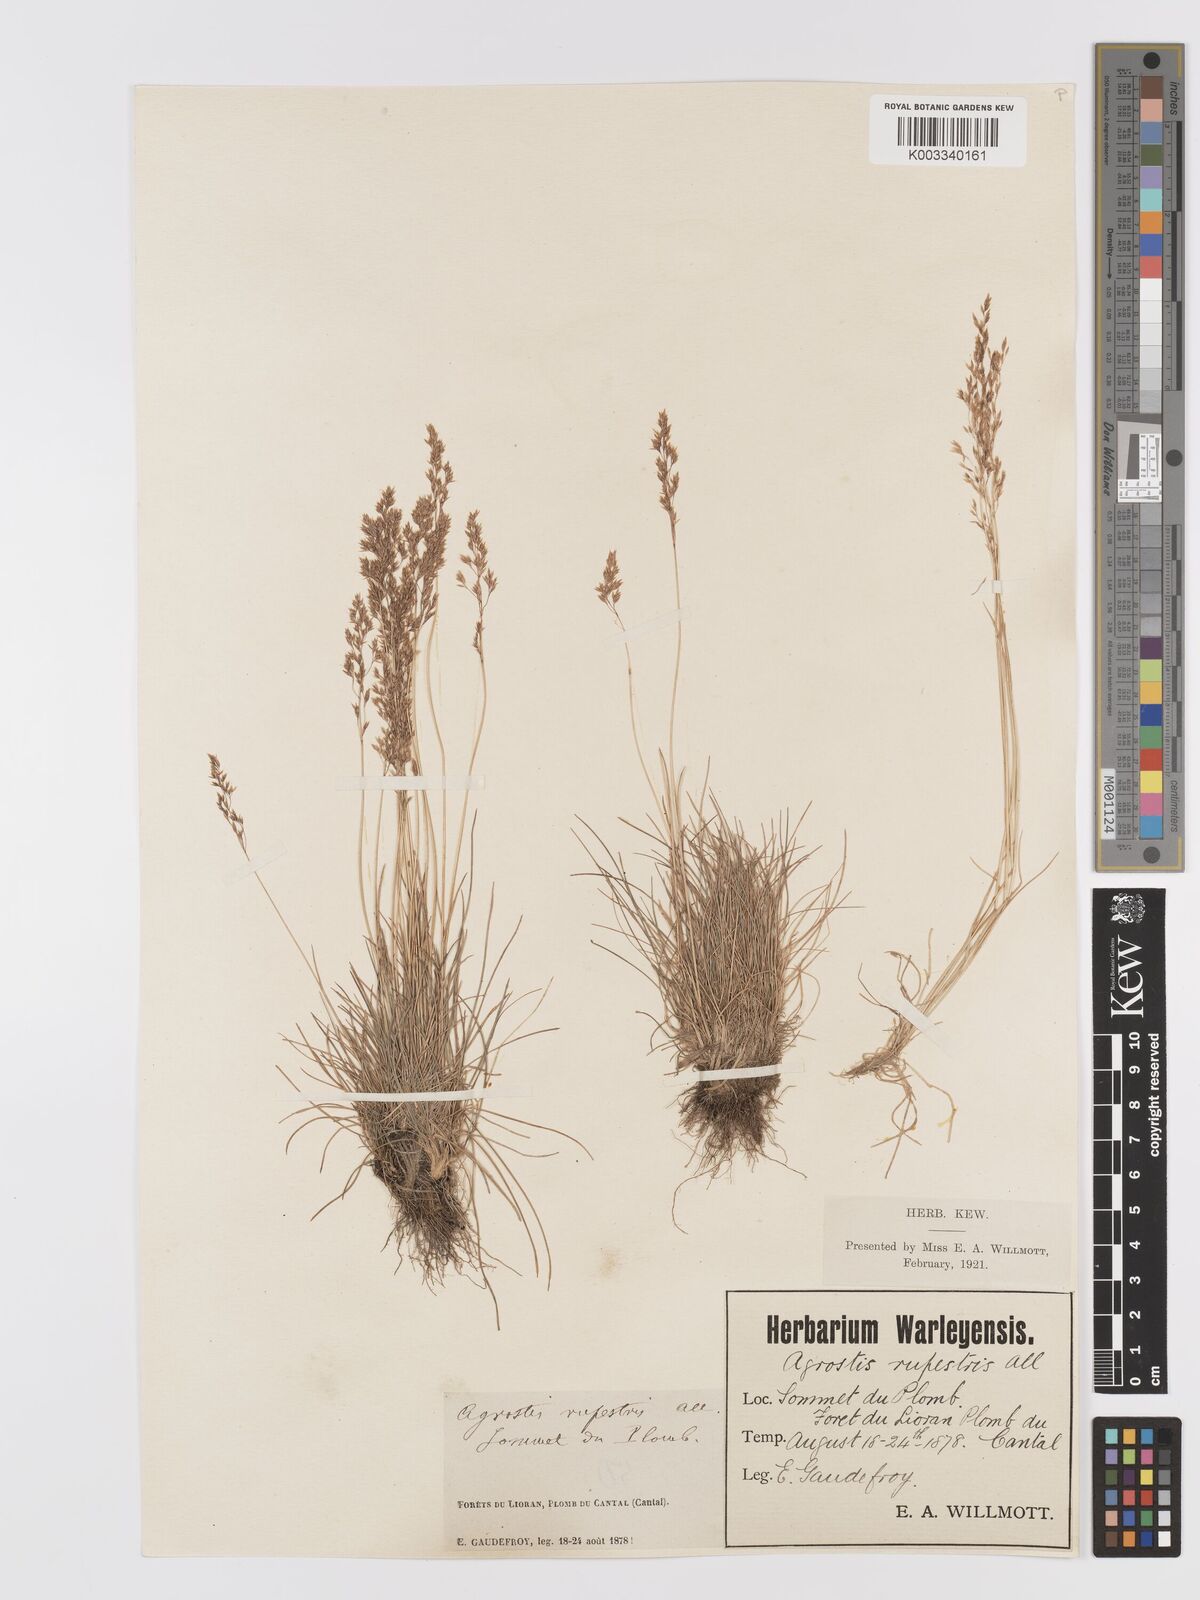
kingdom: Plantae
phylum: Tracheophyta
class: Liliopsida
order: Poales
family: Poaceae
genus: Agrostis
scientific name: Agrostis rupestris
